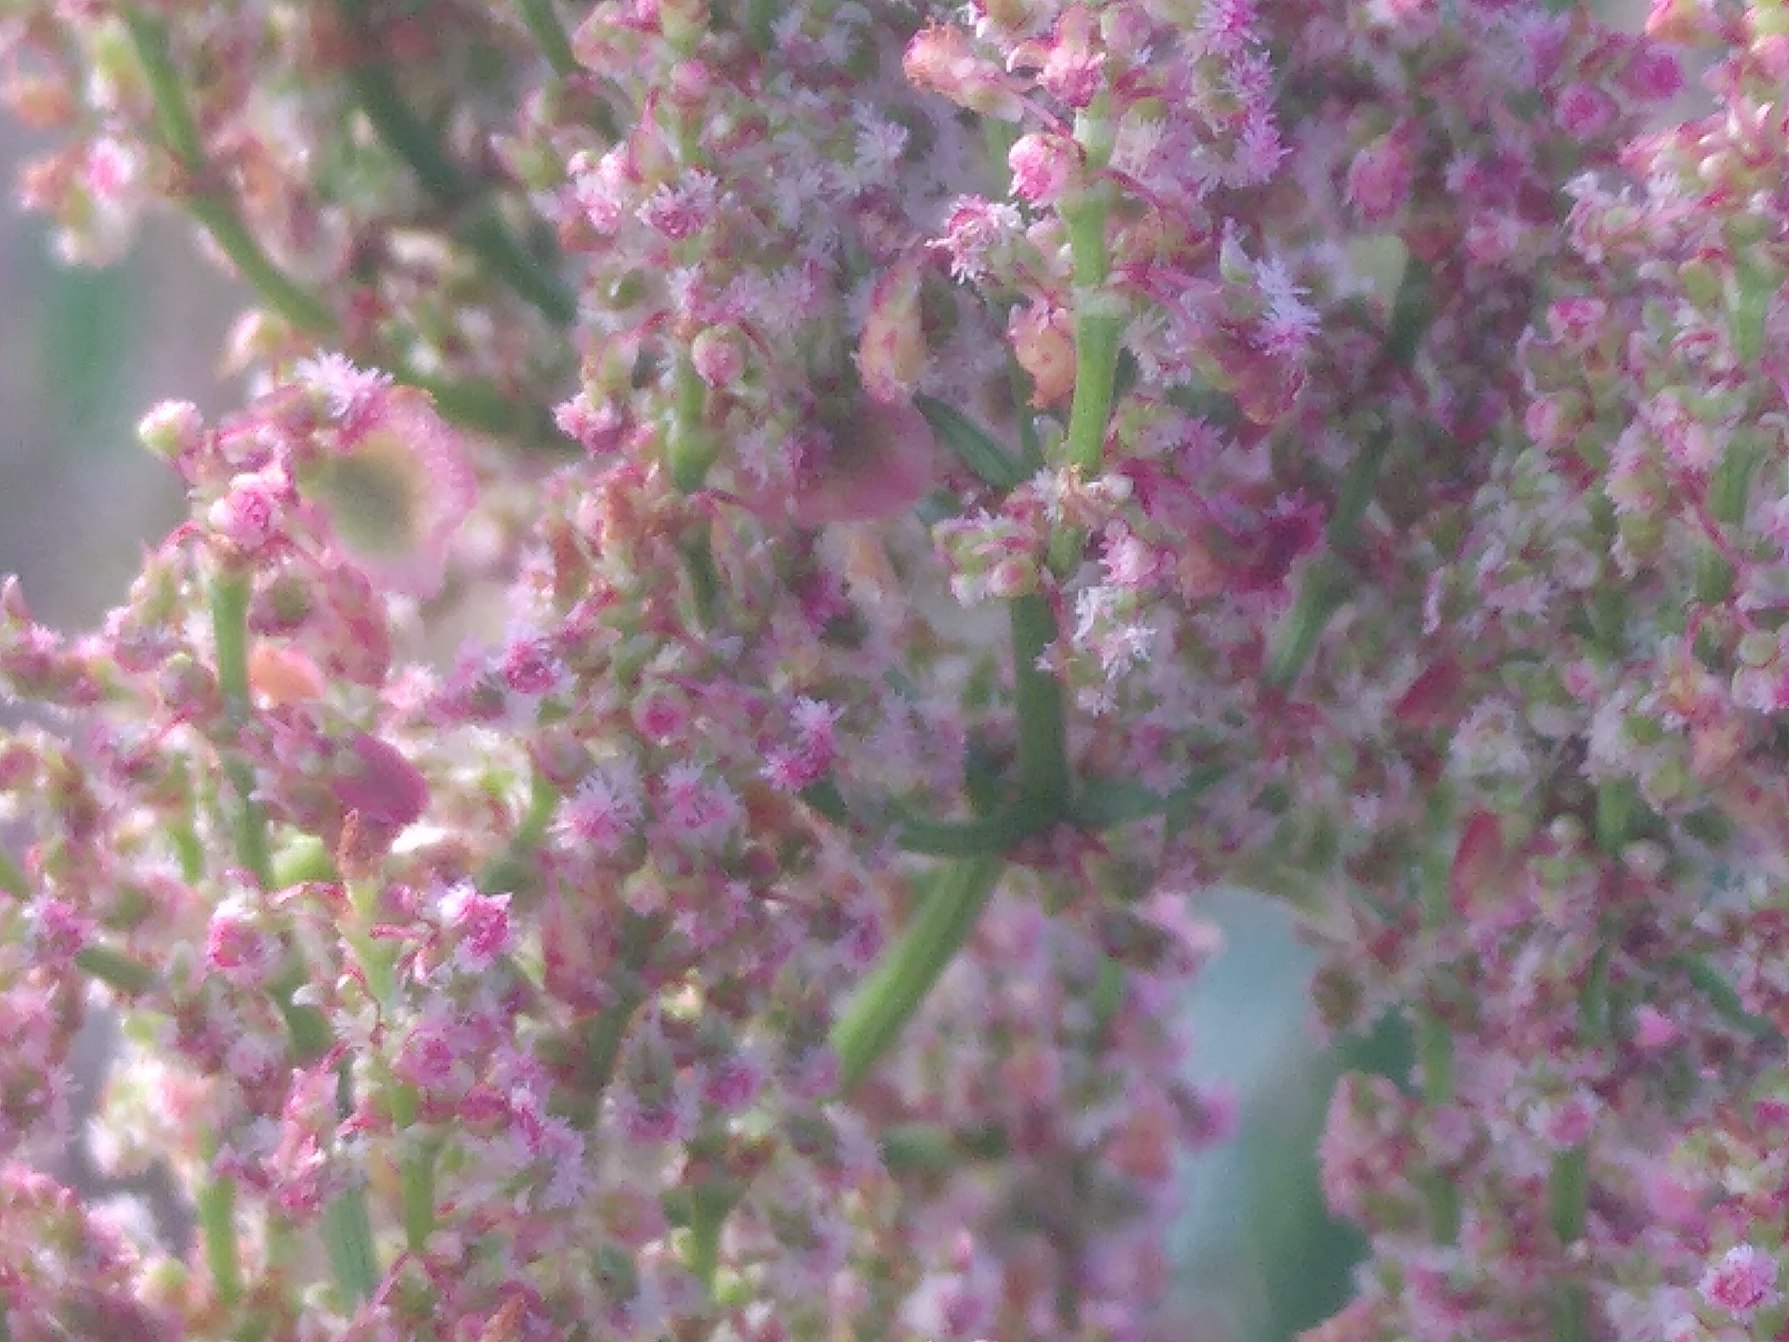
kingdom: Plantae
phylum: Tracheophyta
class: Magnoliopsida
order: Caryophyllales
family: Polygonaceae
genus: Rumex
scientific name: Rumex thyrsiflorus
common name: Dusk-syre
